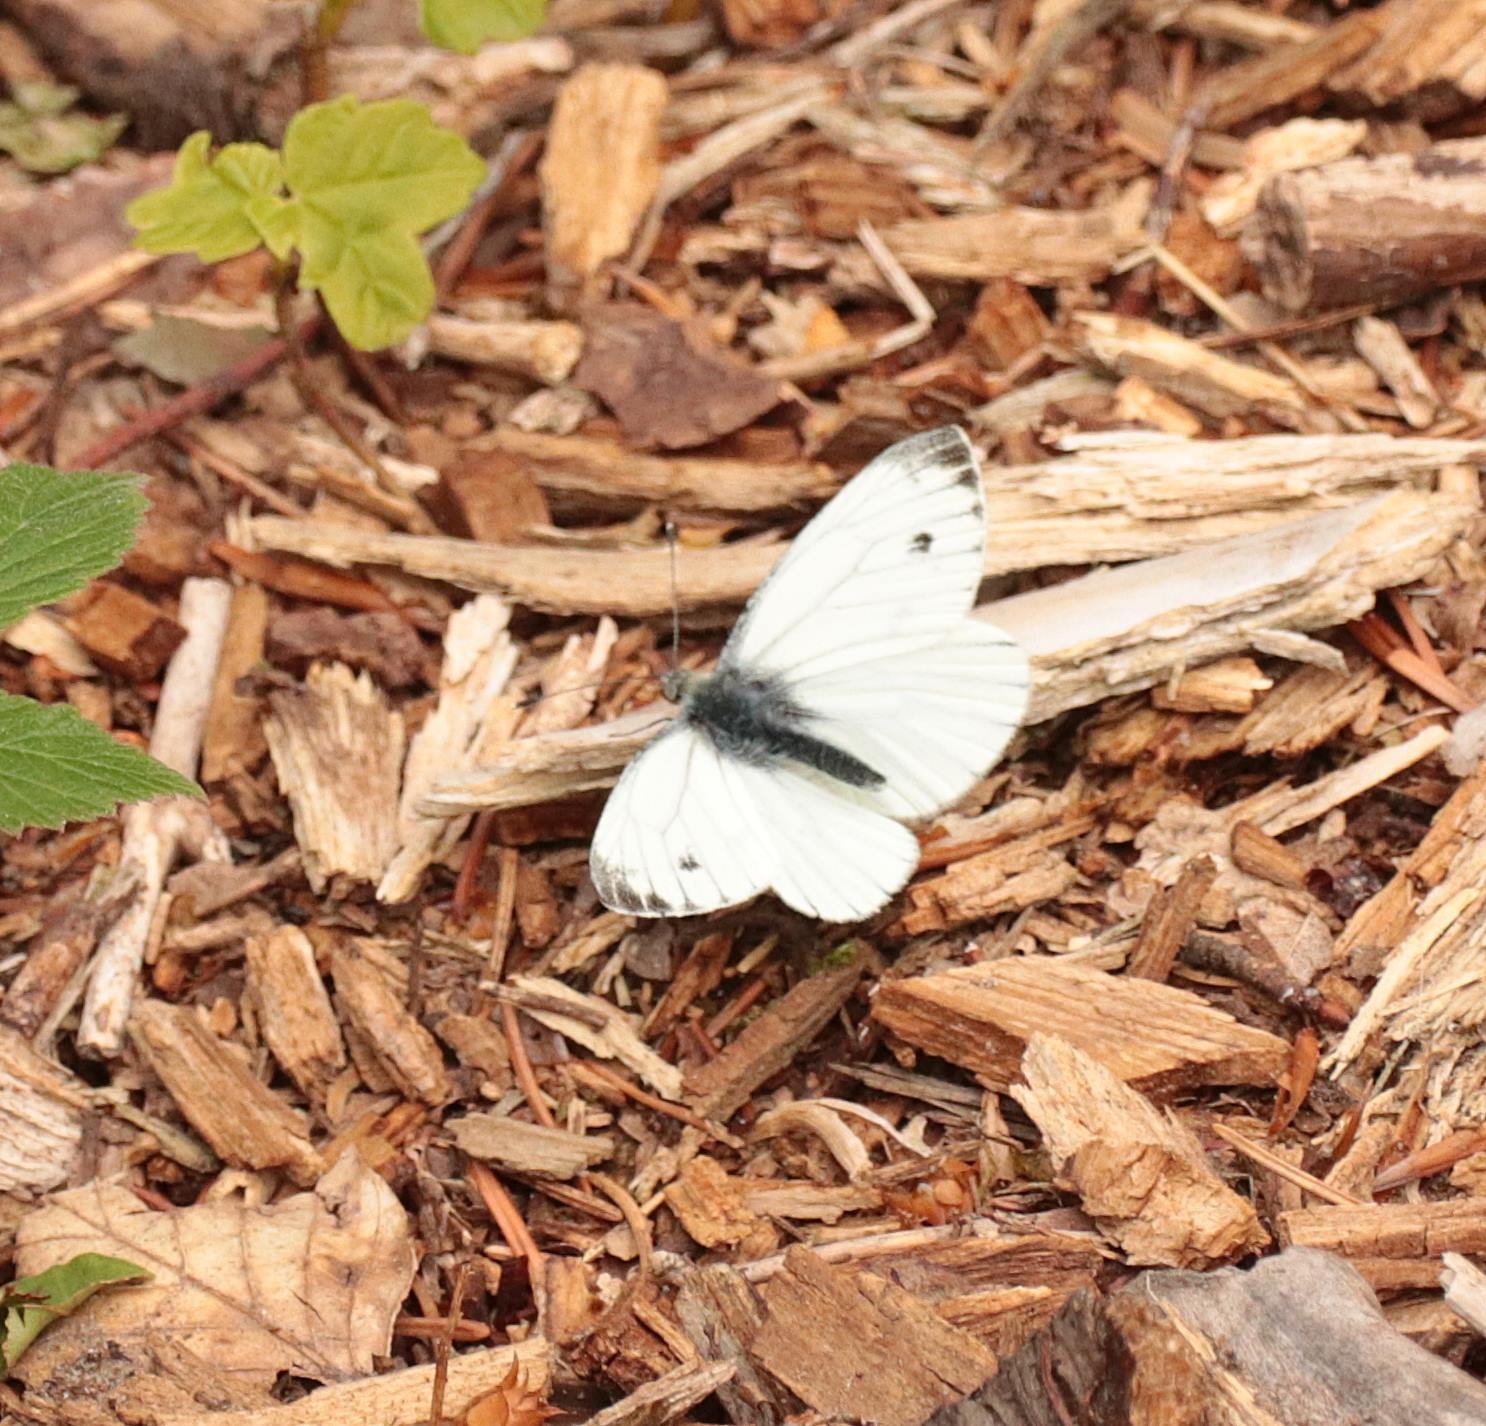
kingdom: Animalia
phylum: Arthropoda
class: Insecta
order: Lepidoptera
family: Pieridae
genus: Pieris
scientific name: Pieris napi
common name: Grønåret kålsommerfugl
